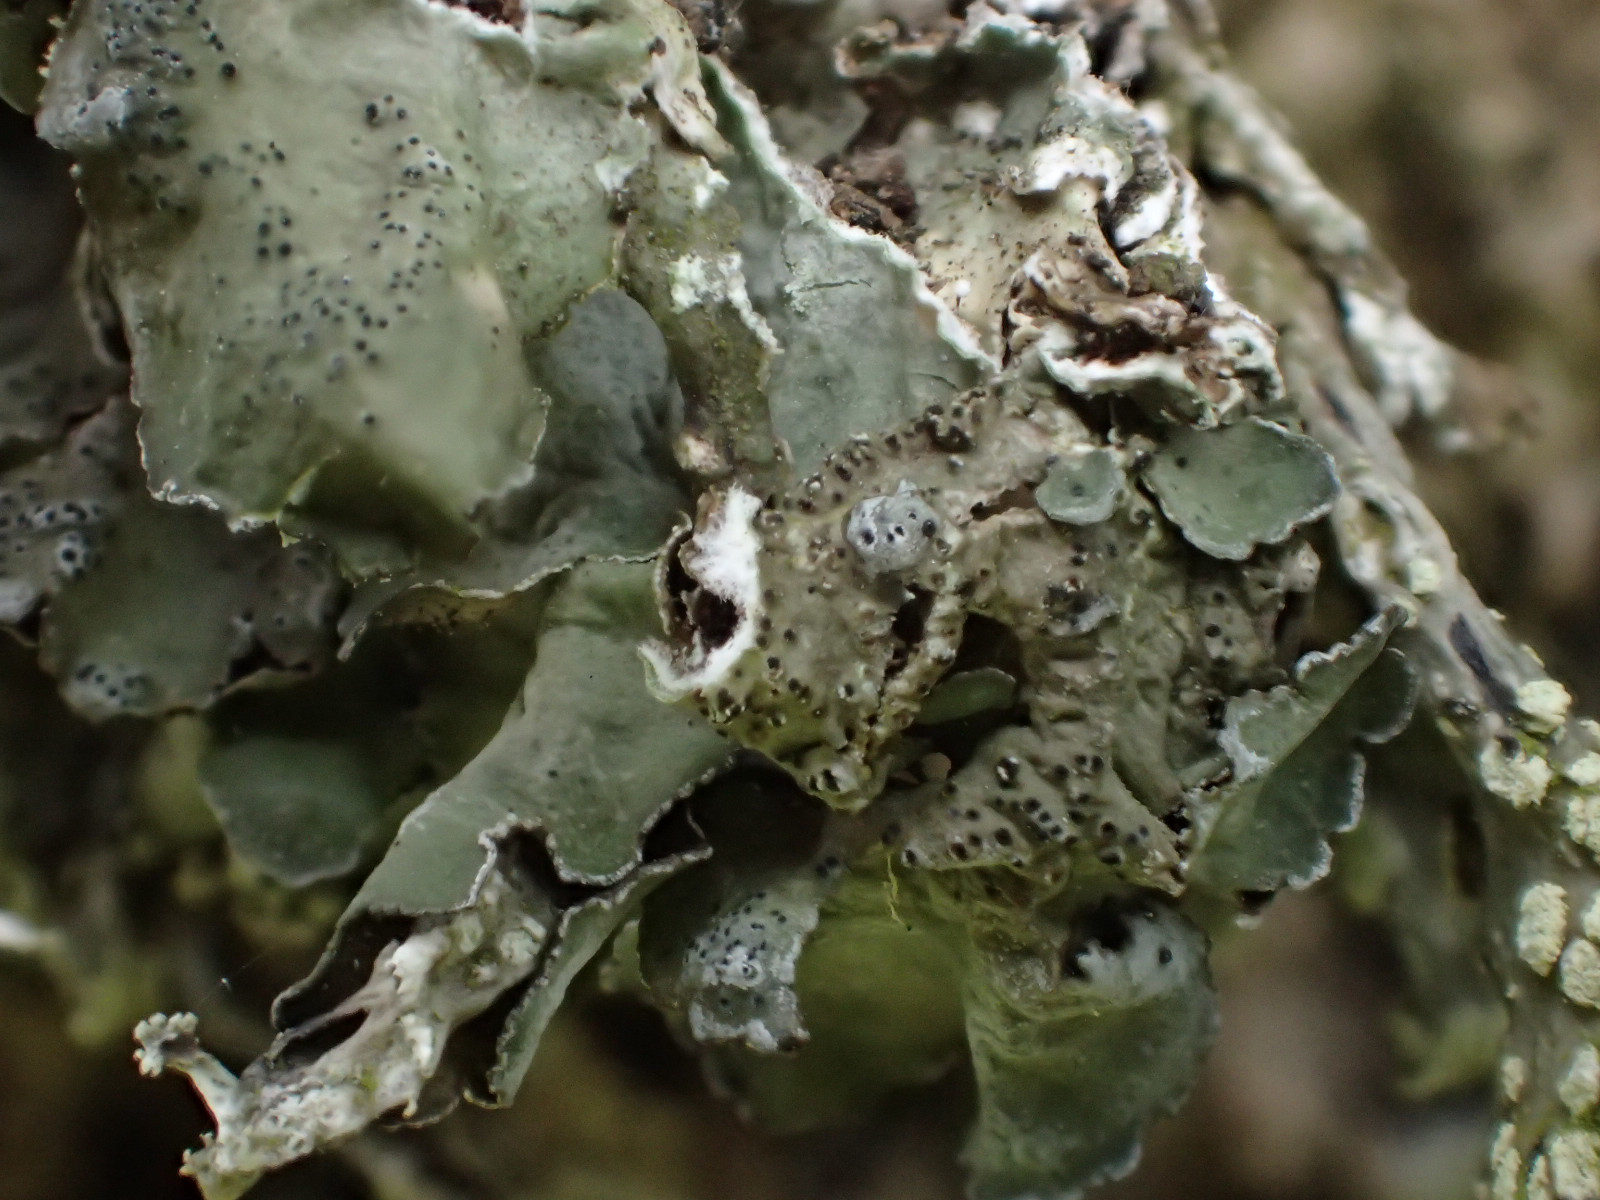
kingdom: Fungi
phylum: Ascomycota
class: Lecanoromycetes
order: Lecanorales
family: Parmeliaceae
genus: Pleurosticta
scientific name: Pleurosticta acetabulum
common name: stor skållav
